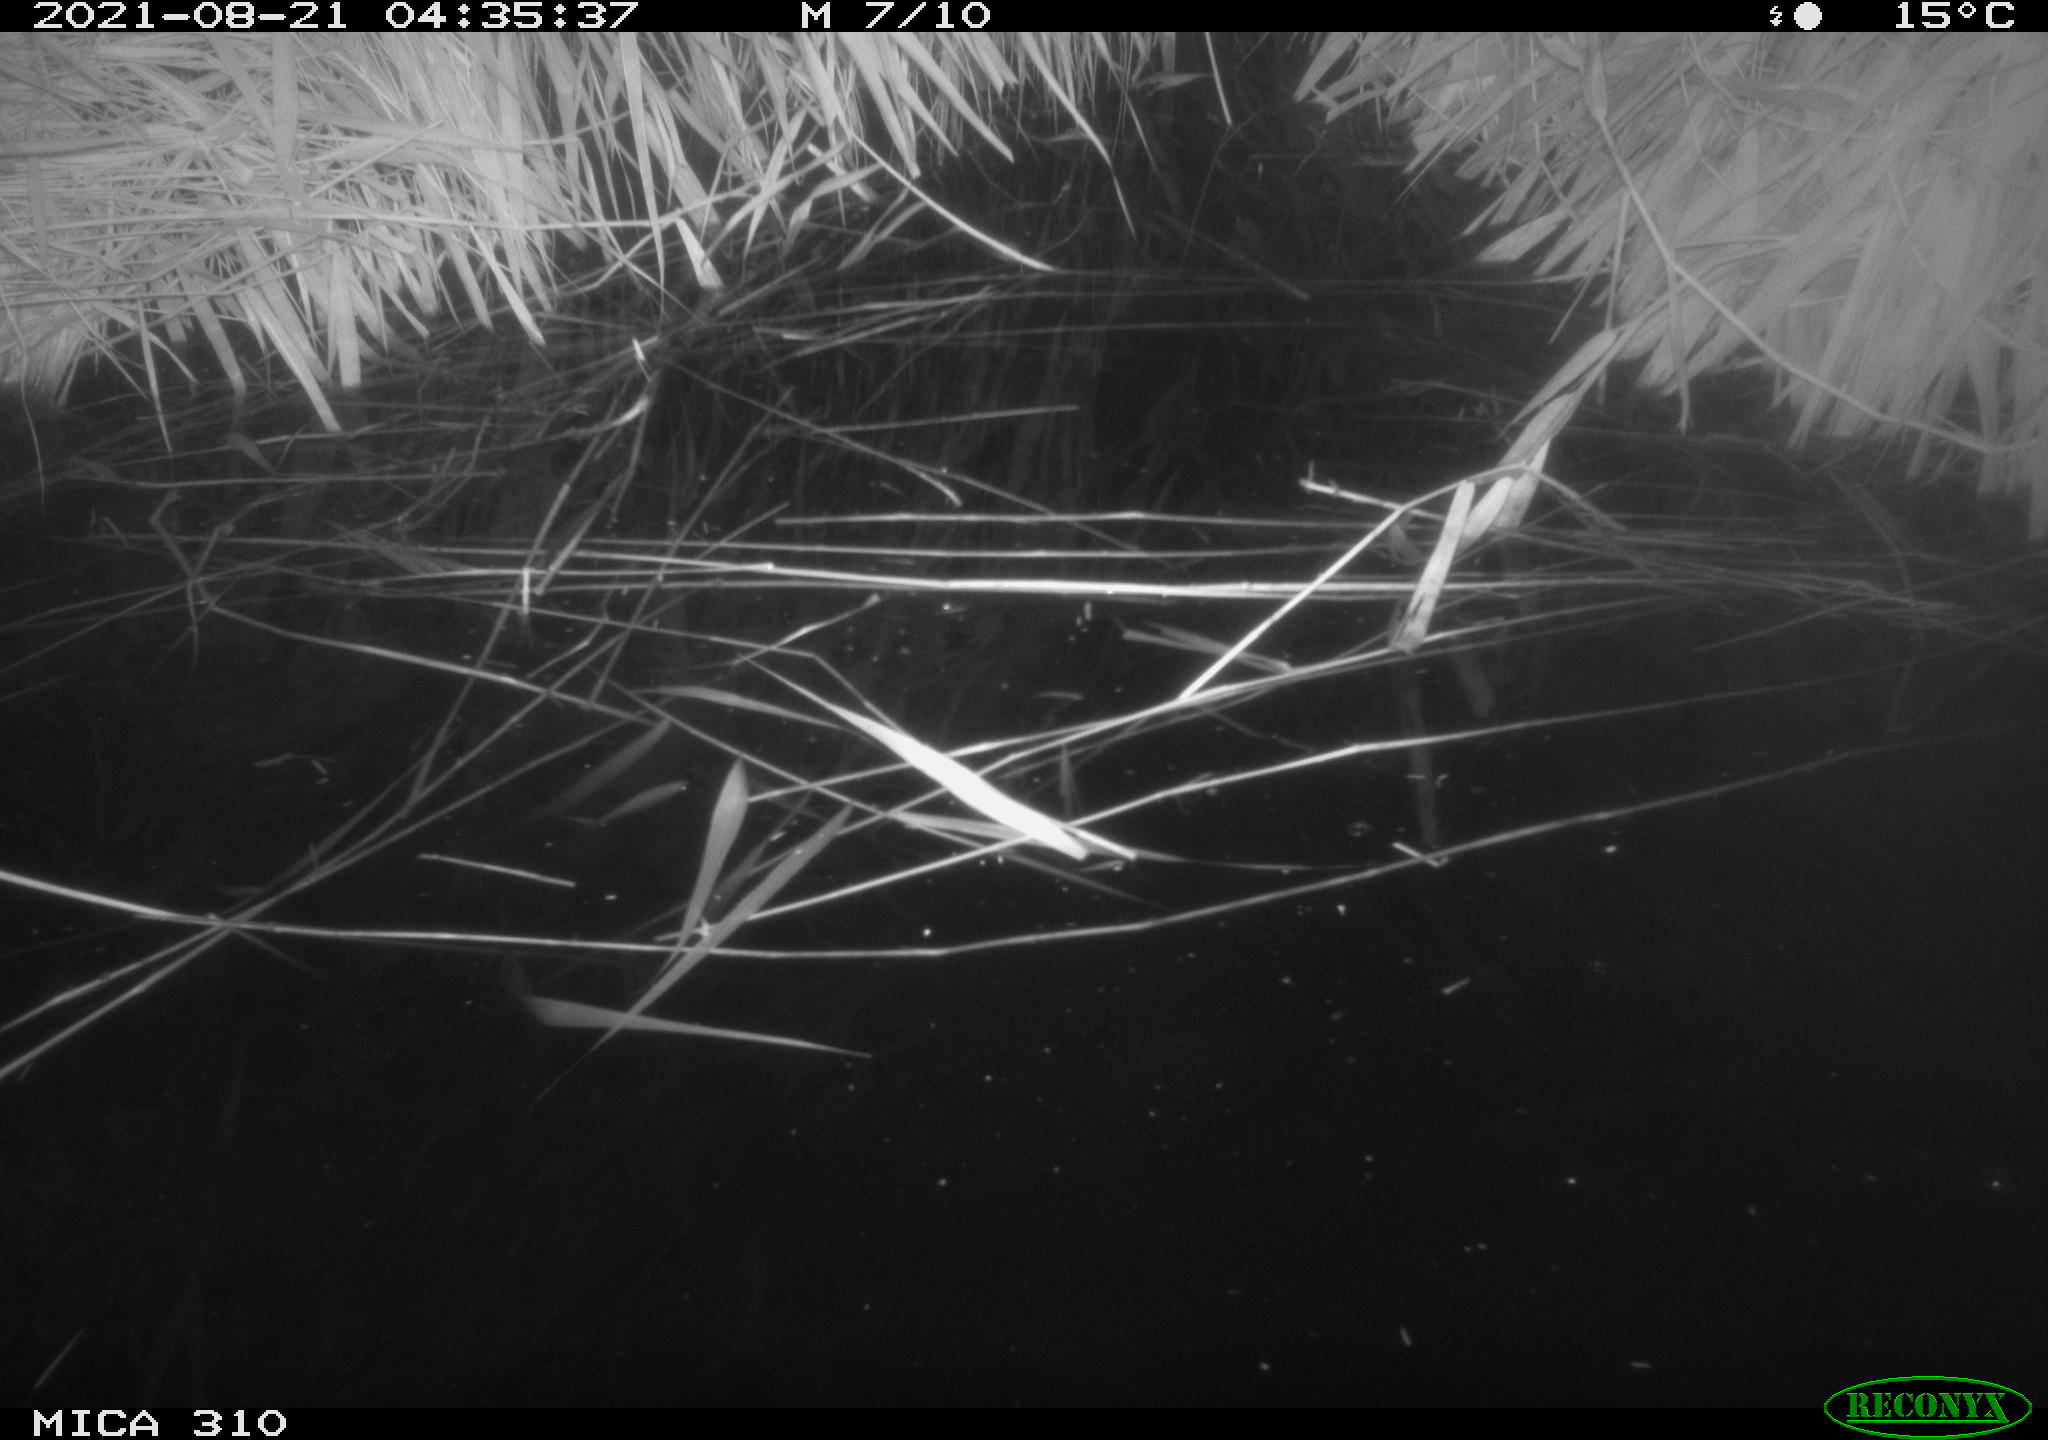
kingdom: Animalia
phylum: Chordata
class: Mammalia
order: Rodentia
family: Muridae
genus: Rattus
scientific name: Rattus norvegicus
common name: Brown rat
